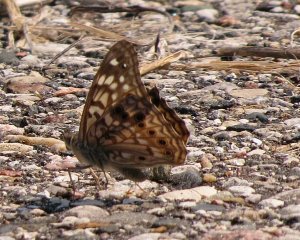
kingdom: Animalia
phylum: Arthropoda
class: Insecta
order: Lepidoptera
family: Nymphalidae
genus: Asterocampa
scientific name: Asterocampa celtis
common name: Hackberry Emperor
